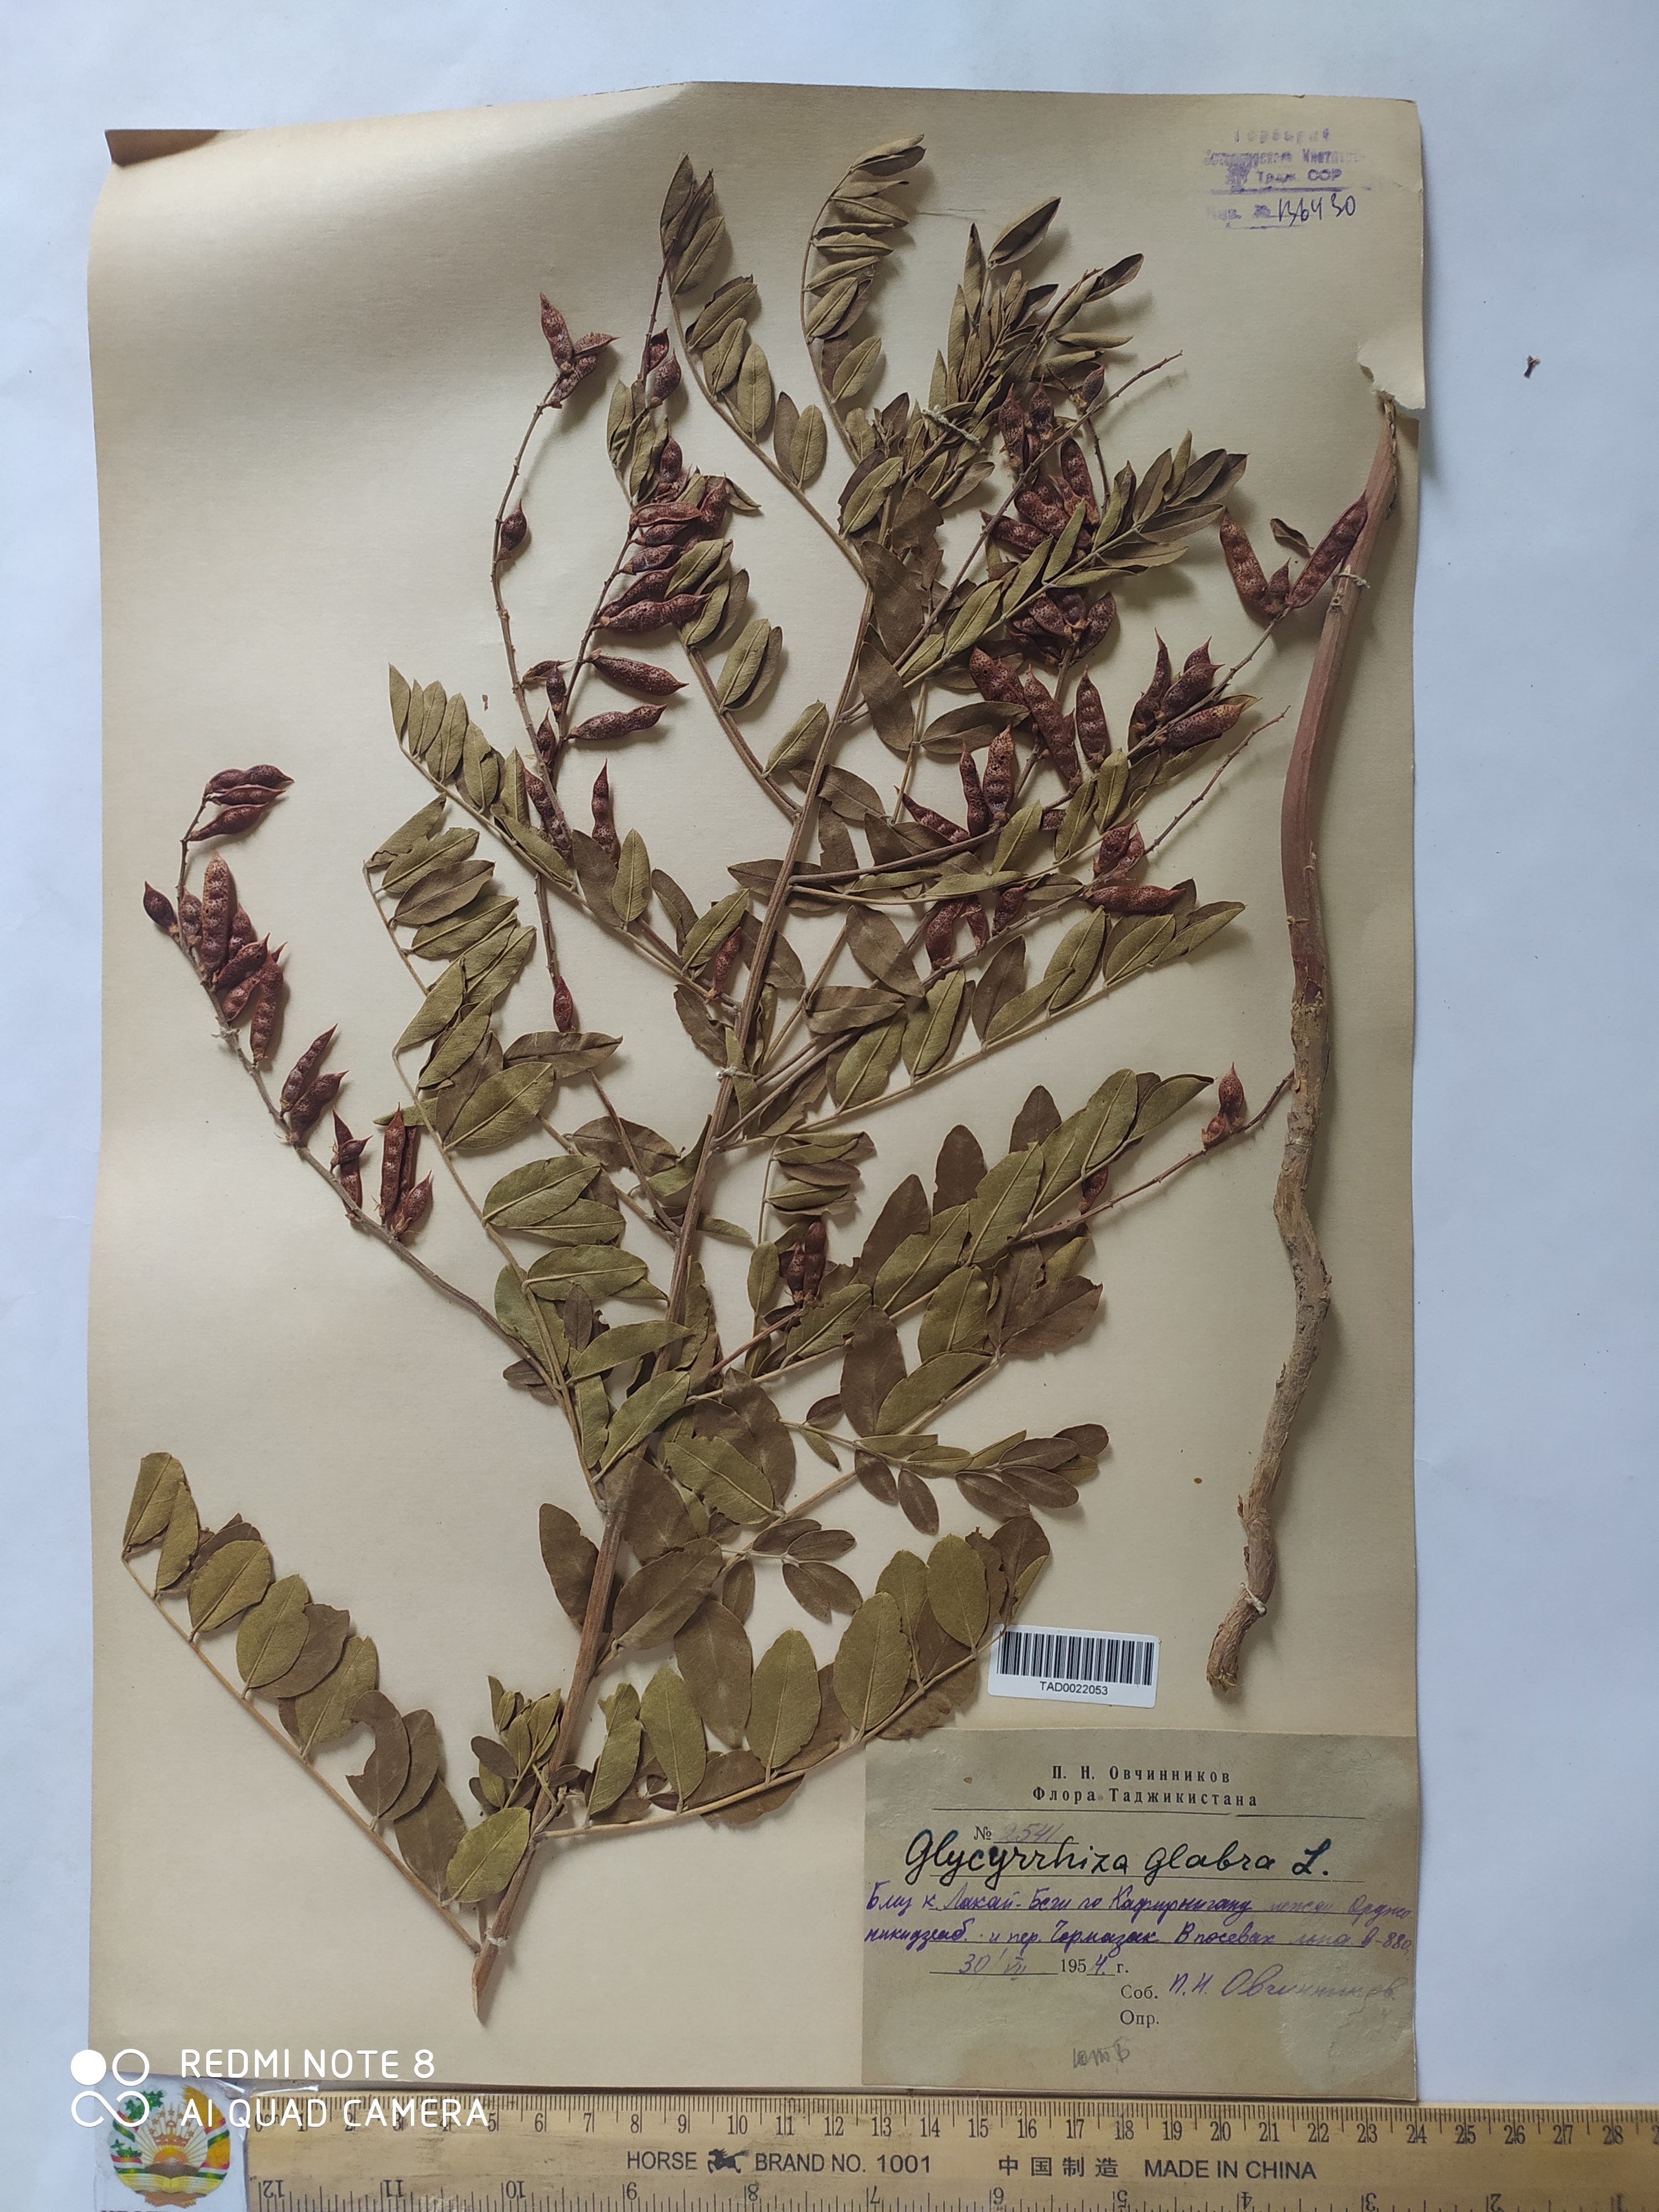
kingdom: Plantae
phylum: Tracheophyta
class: Magnoliopsida
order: Fabales
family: Fabaceae
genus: Glycyrrhiza
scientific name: Glycyrrhiza glabra
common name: Liquorice
